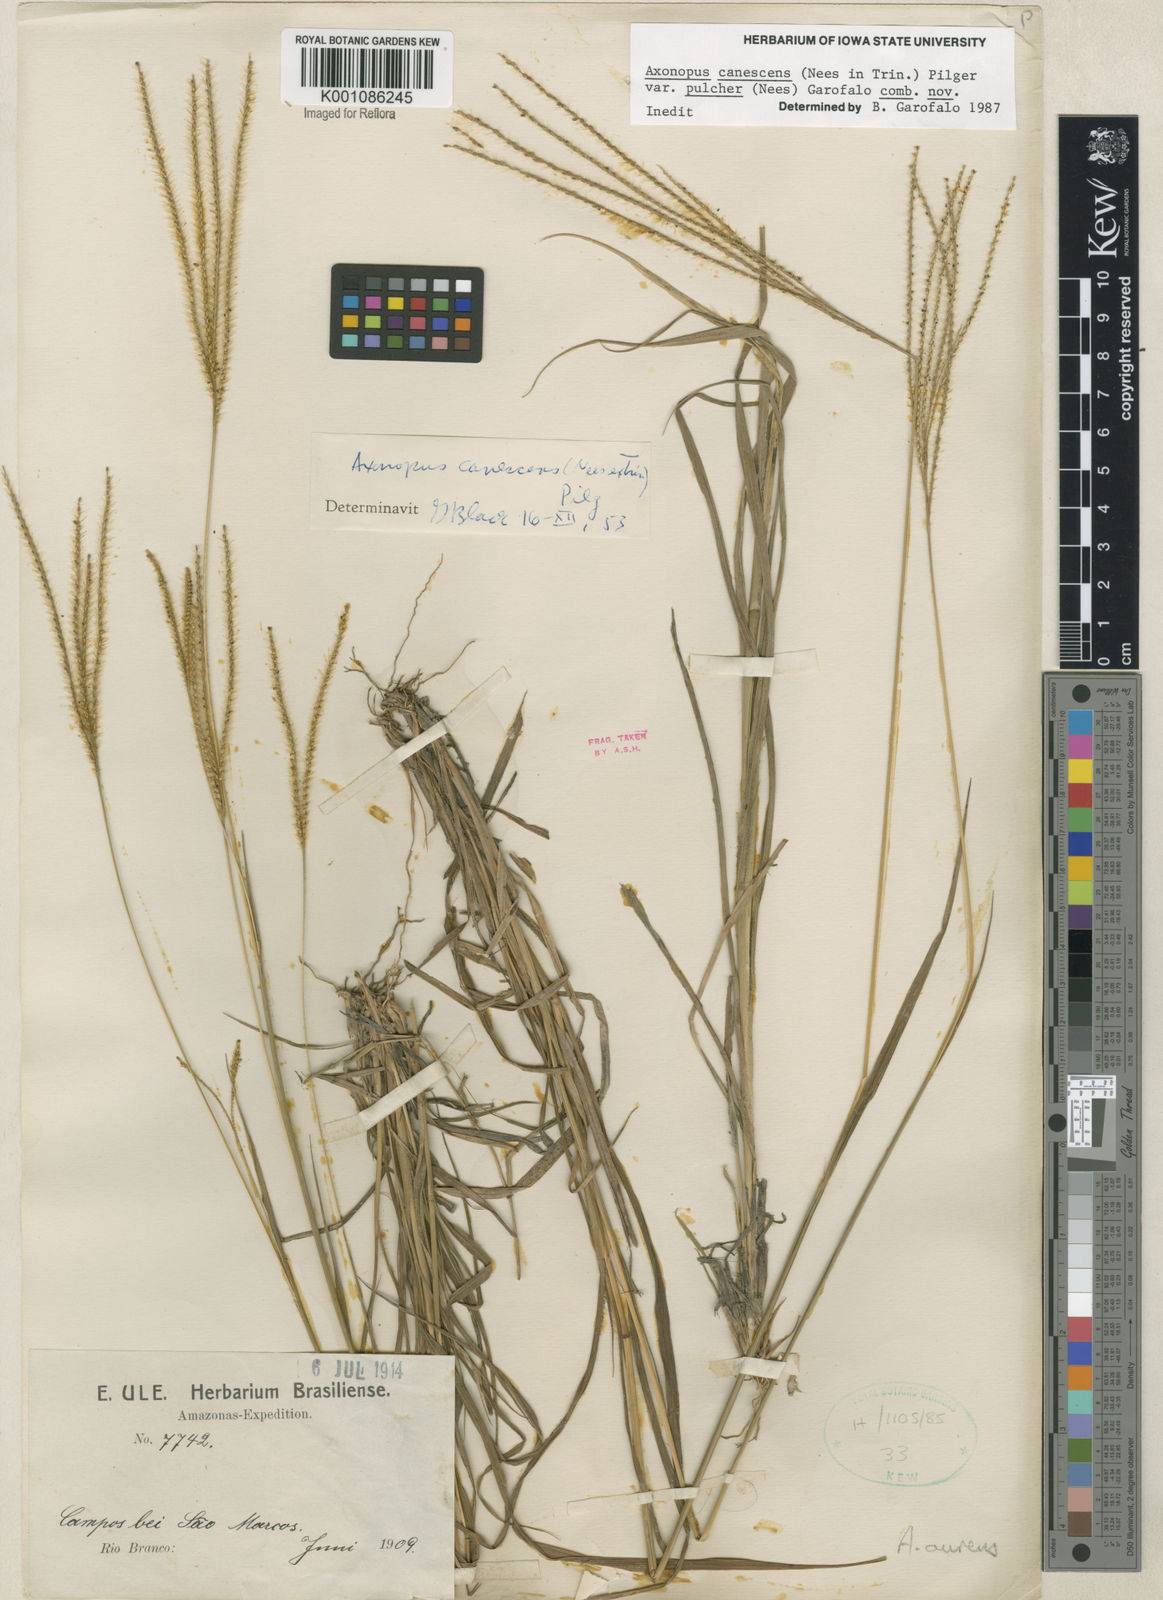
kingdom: Plantae
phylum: Tracheophyta
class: Liliopsida
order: Poales
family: Poaceae
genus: Axonopus
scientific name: Axonopus aureus
